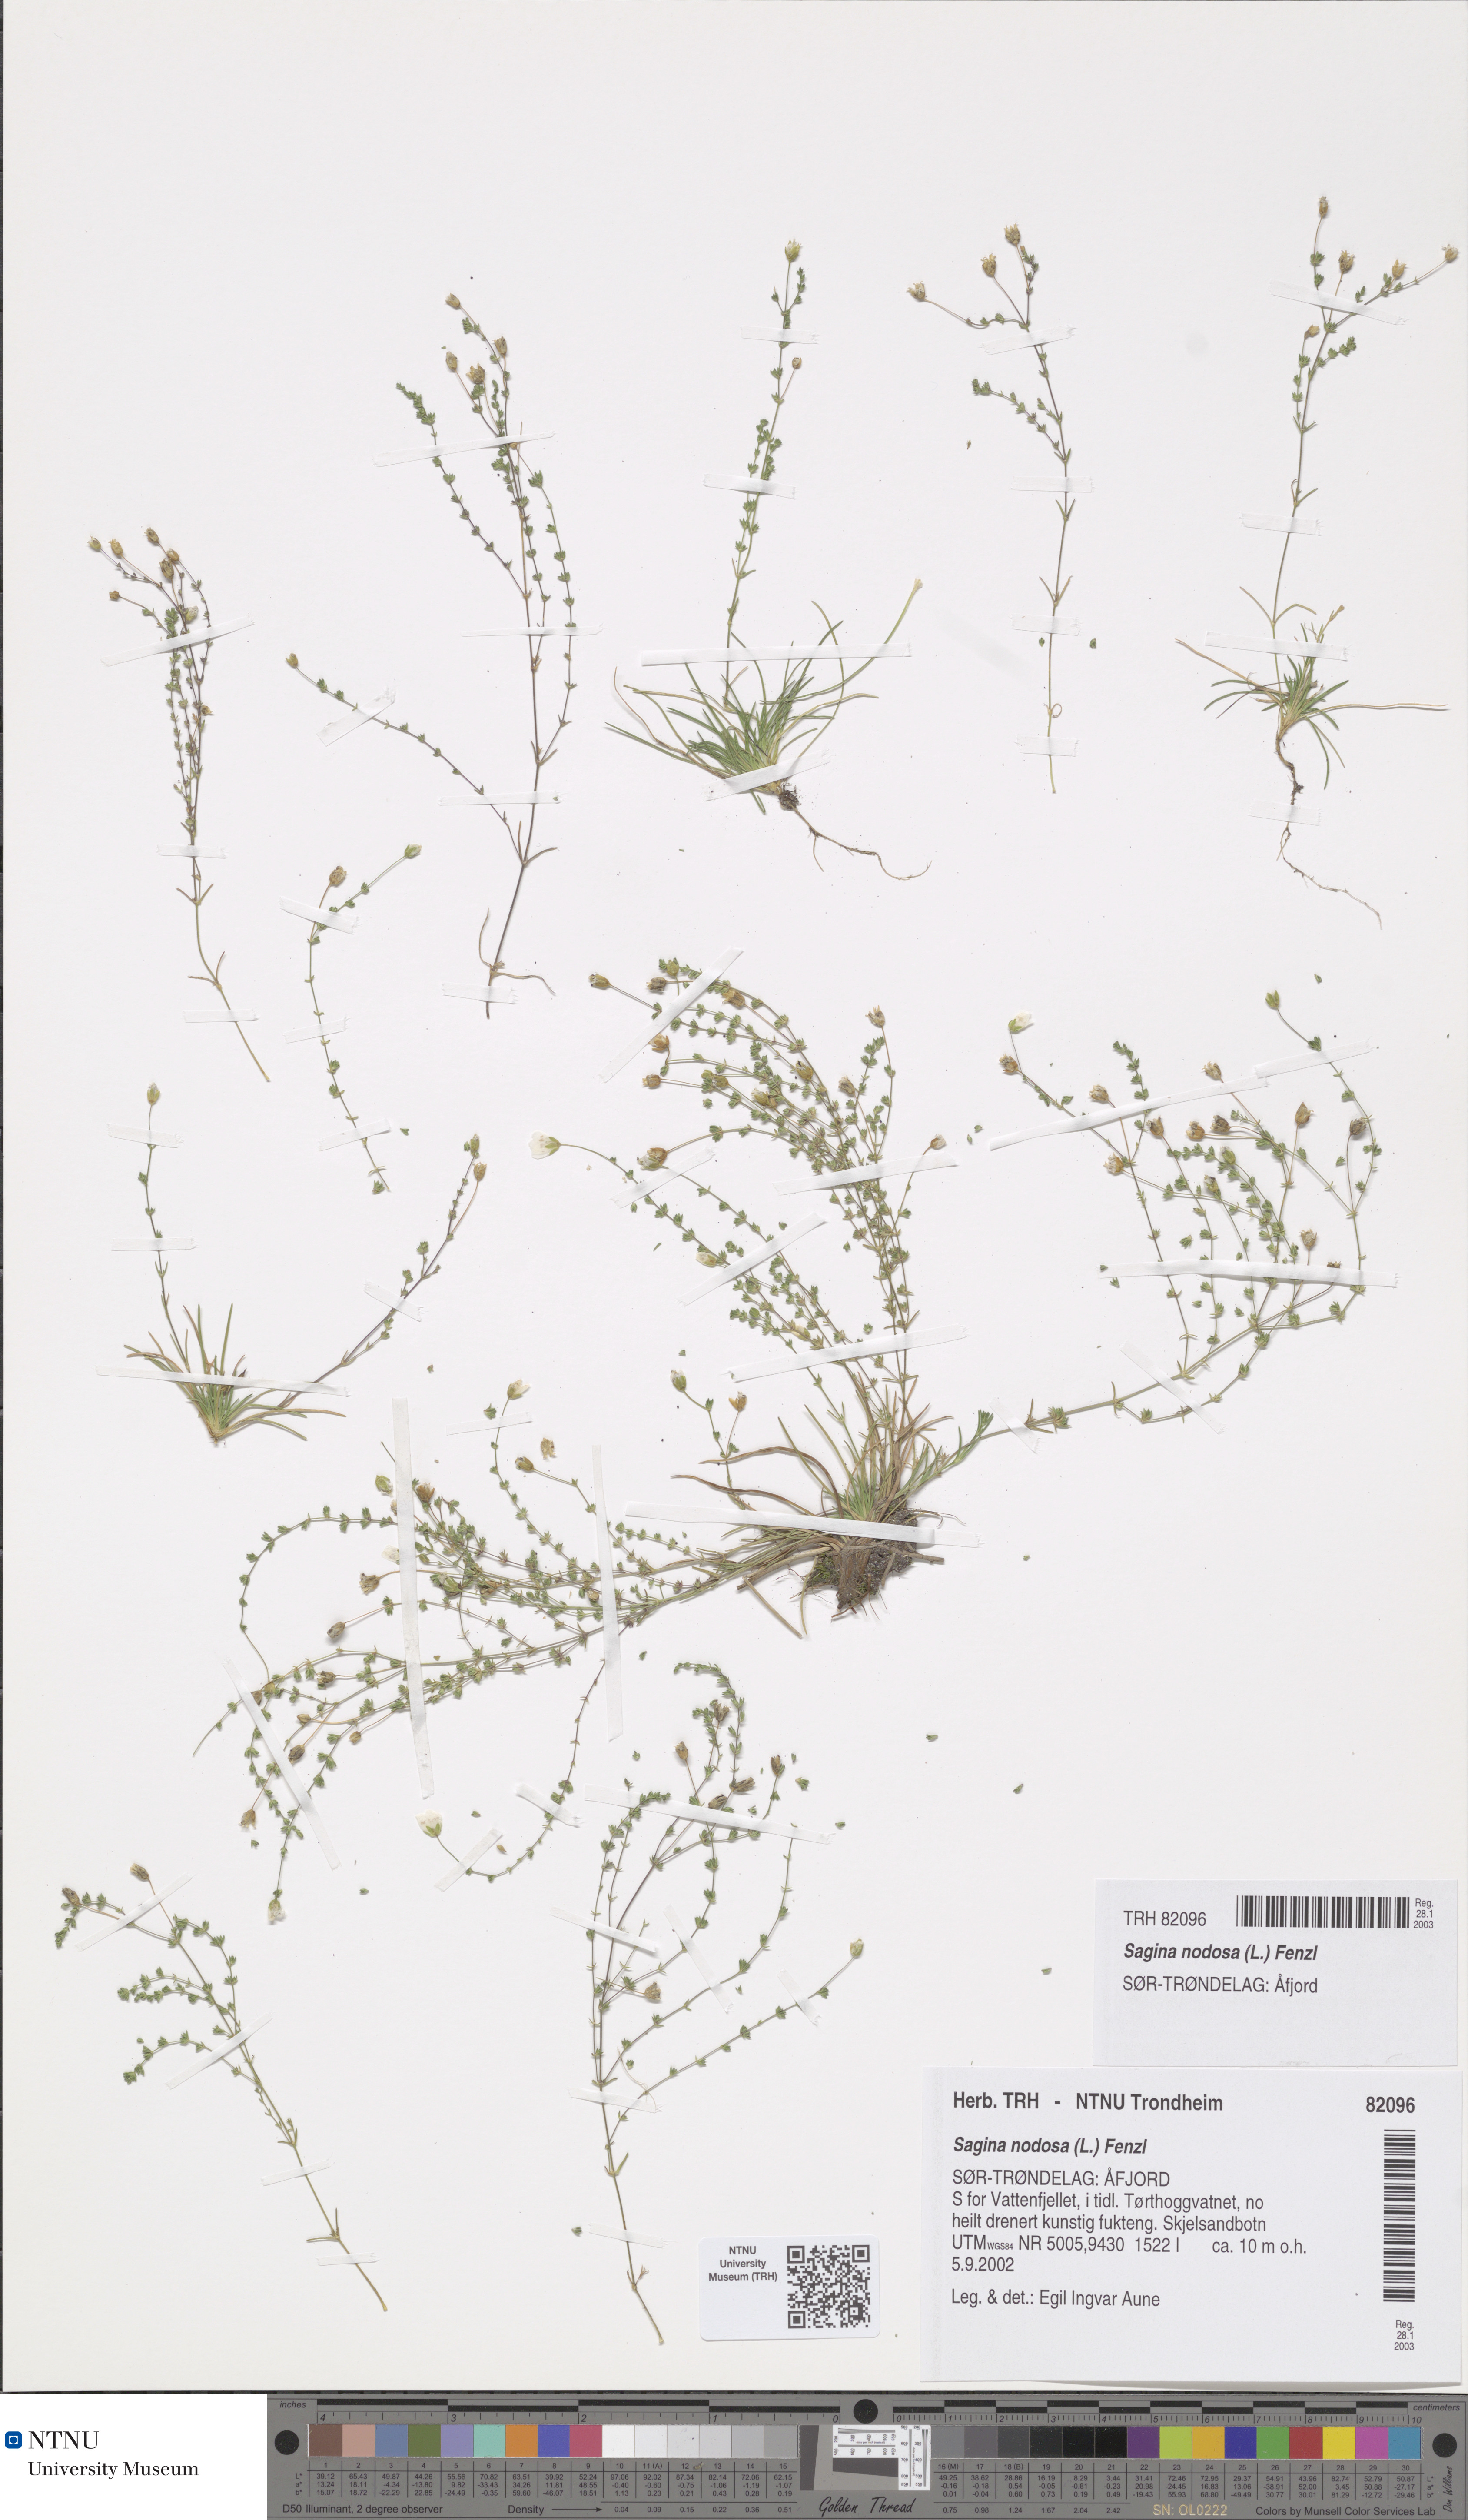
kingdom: Plantae
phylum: Tracheophyta
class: Magnoliopsida
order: Caryophyllales
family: Caryophyllaceae
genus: Sagina
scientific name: Sagina nodosa
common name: Knotted pearlwort
